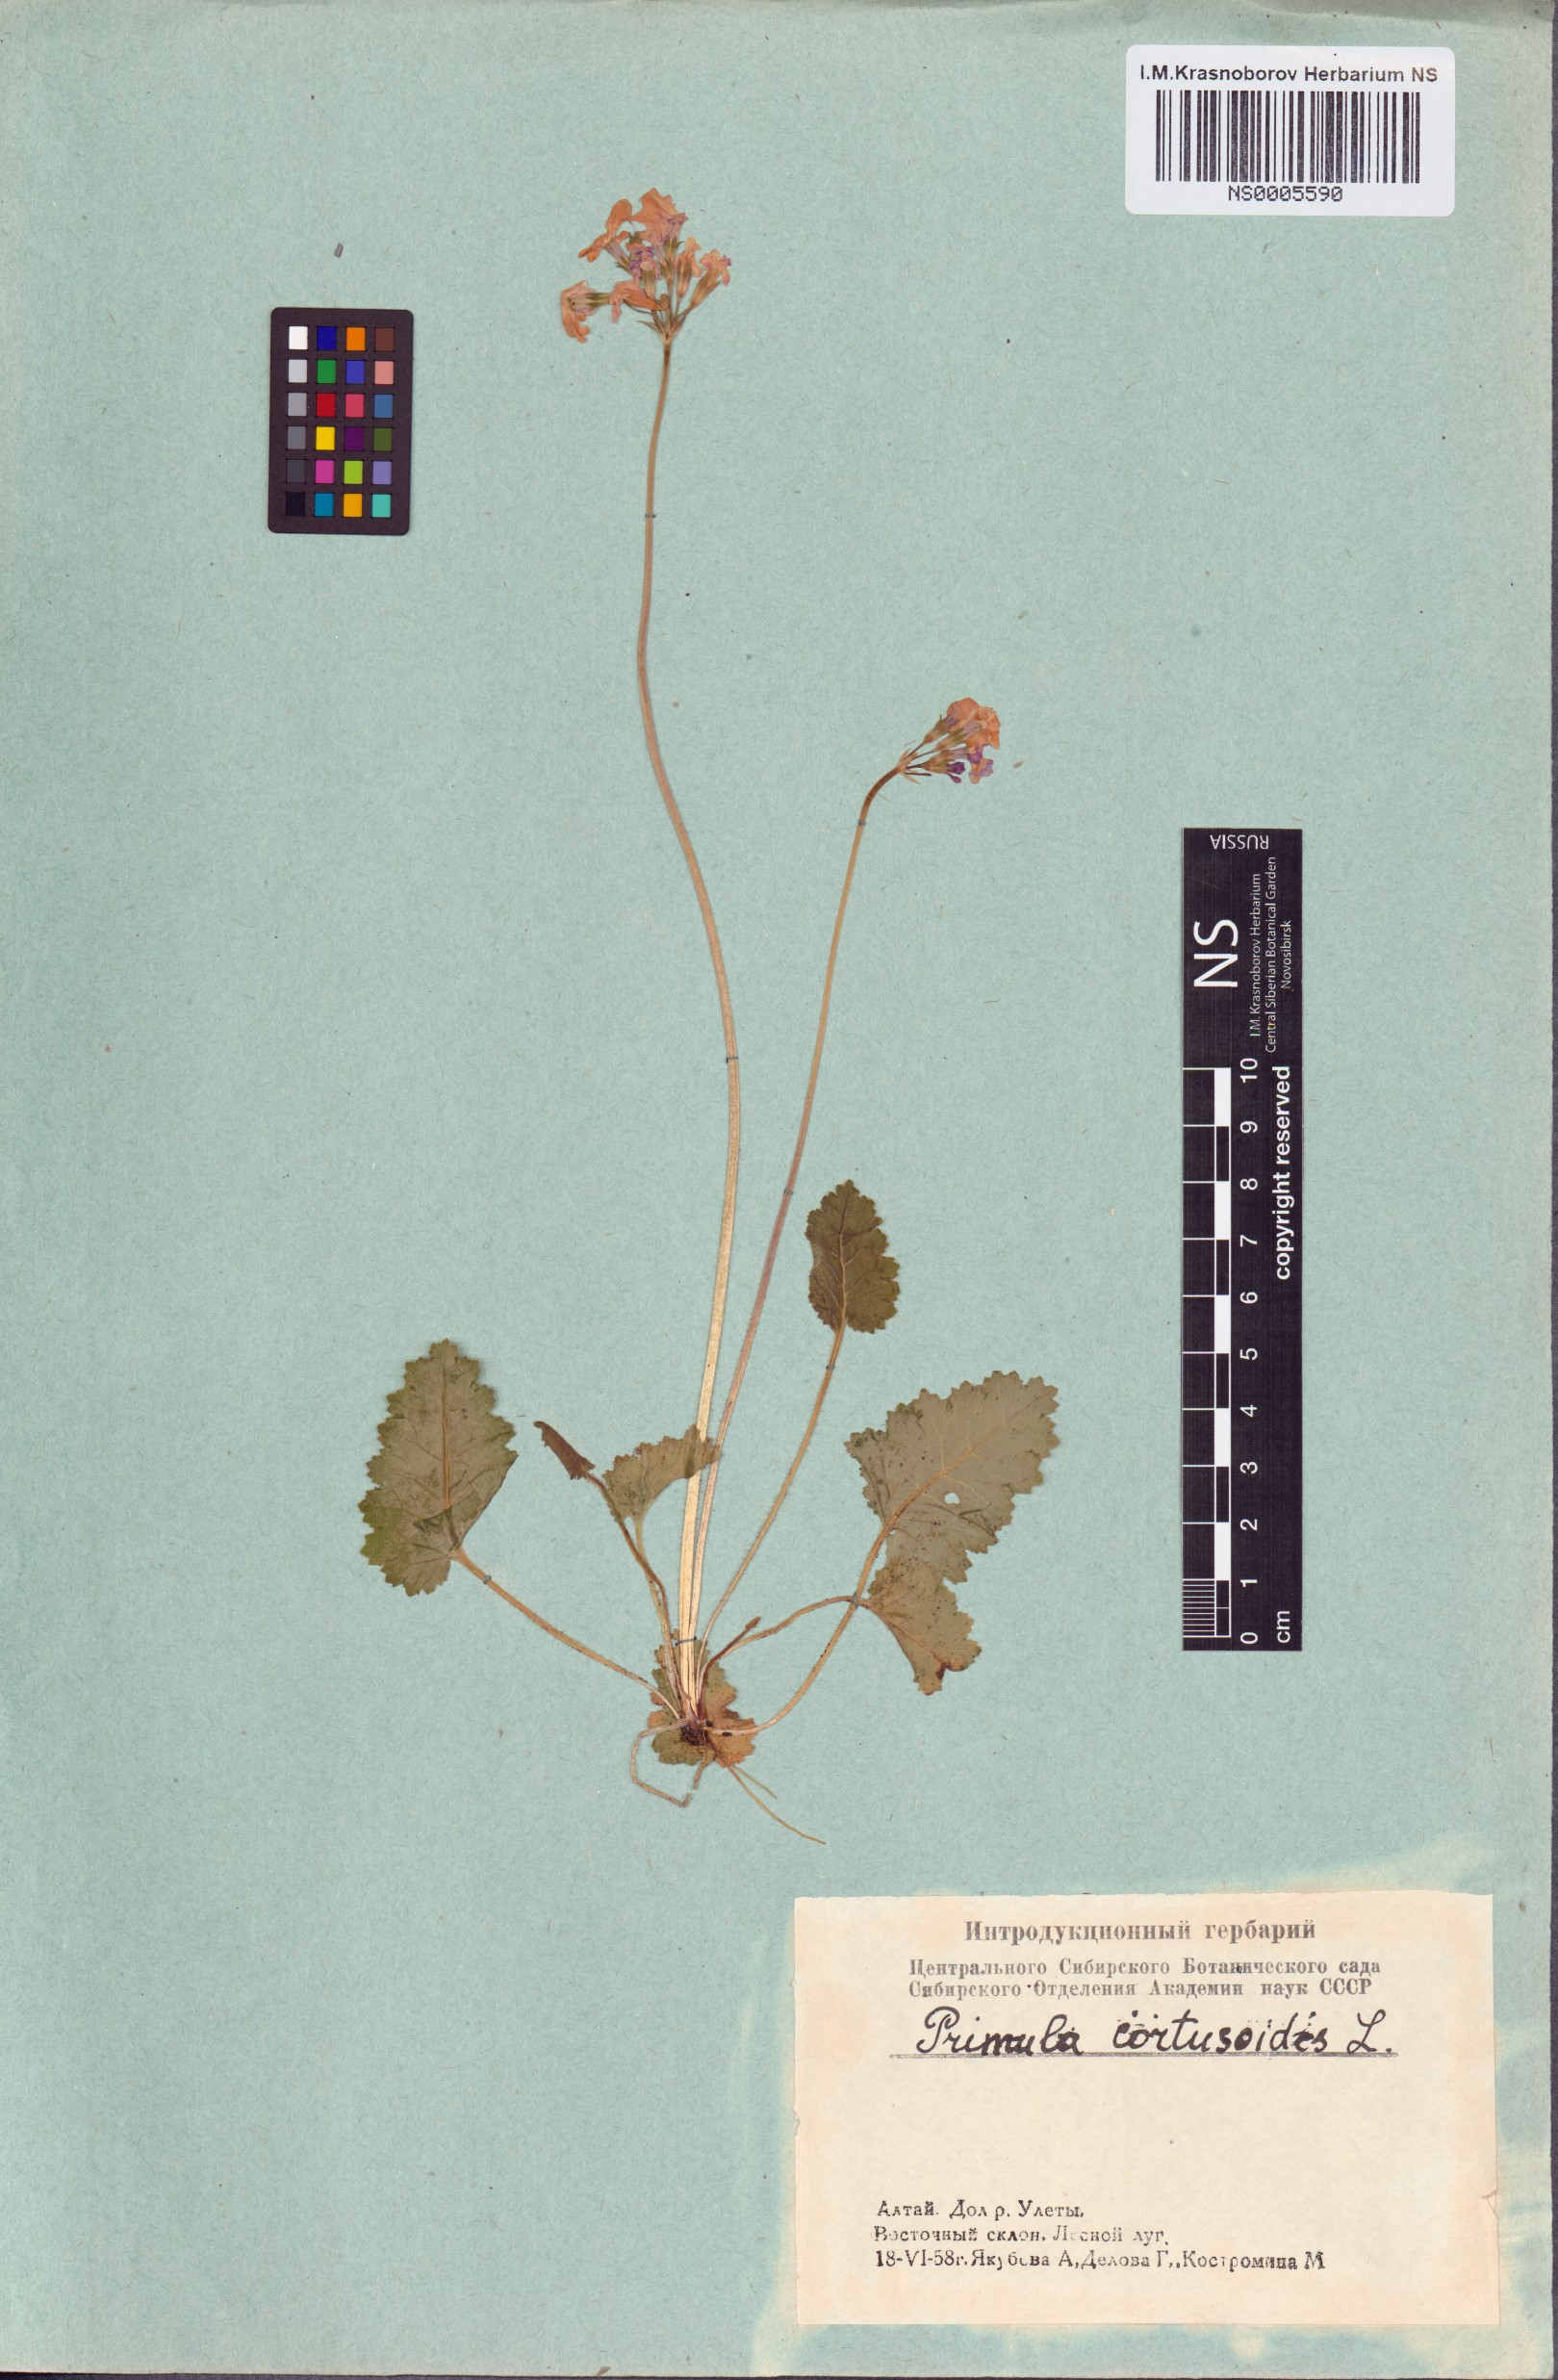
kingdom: Plantae
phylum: Tracheophyta
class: Magnoliopsida
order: Ericales
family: Primulaceae
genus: Primula
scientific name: Primula cortusoides
